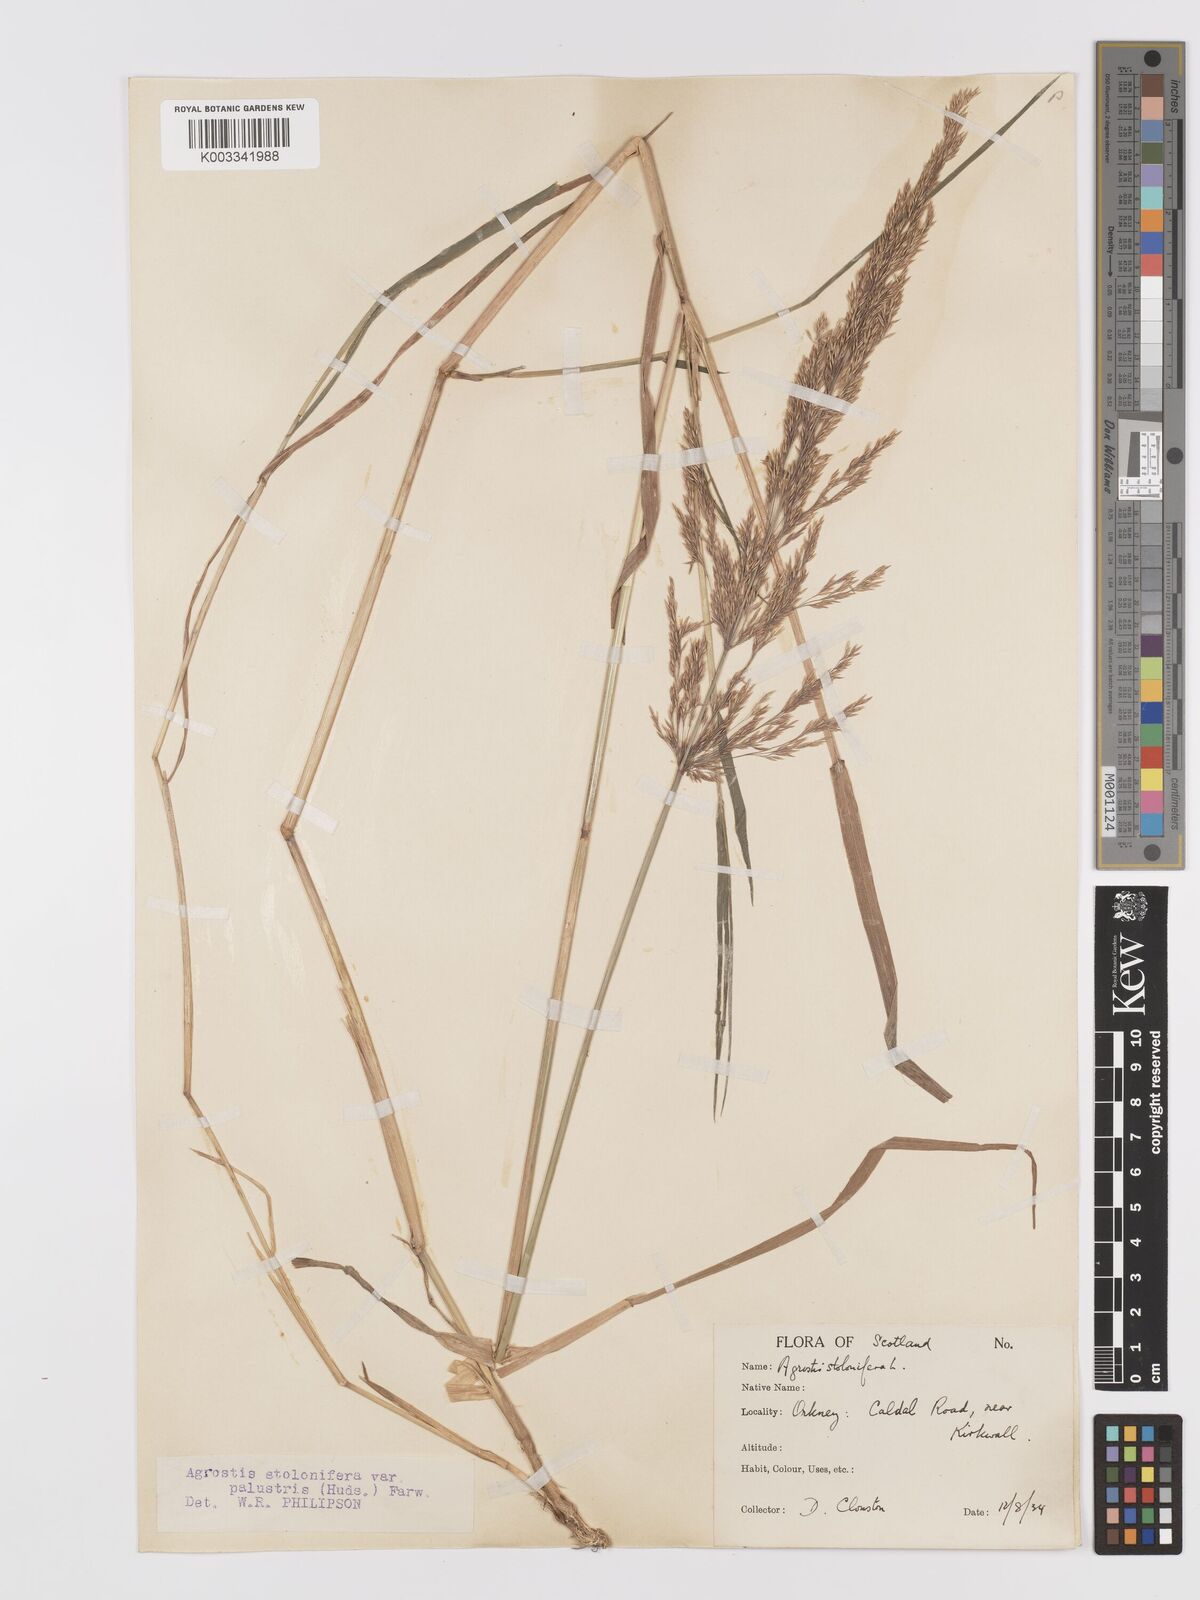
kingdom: Plantae
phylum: Tracheophyta
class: Liliopsida
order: Poales
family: Poaceae
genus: Agrostis
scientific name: Agrostis stolonifera
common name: Creeping bentgrass
